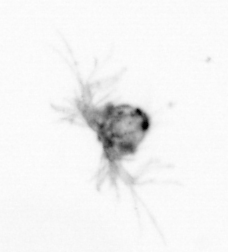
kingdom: Animalia
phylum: Arthropoda
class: Copepoda
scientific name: Copepoda
